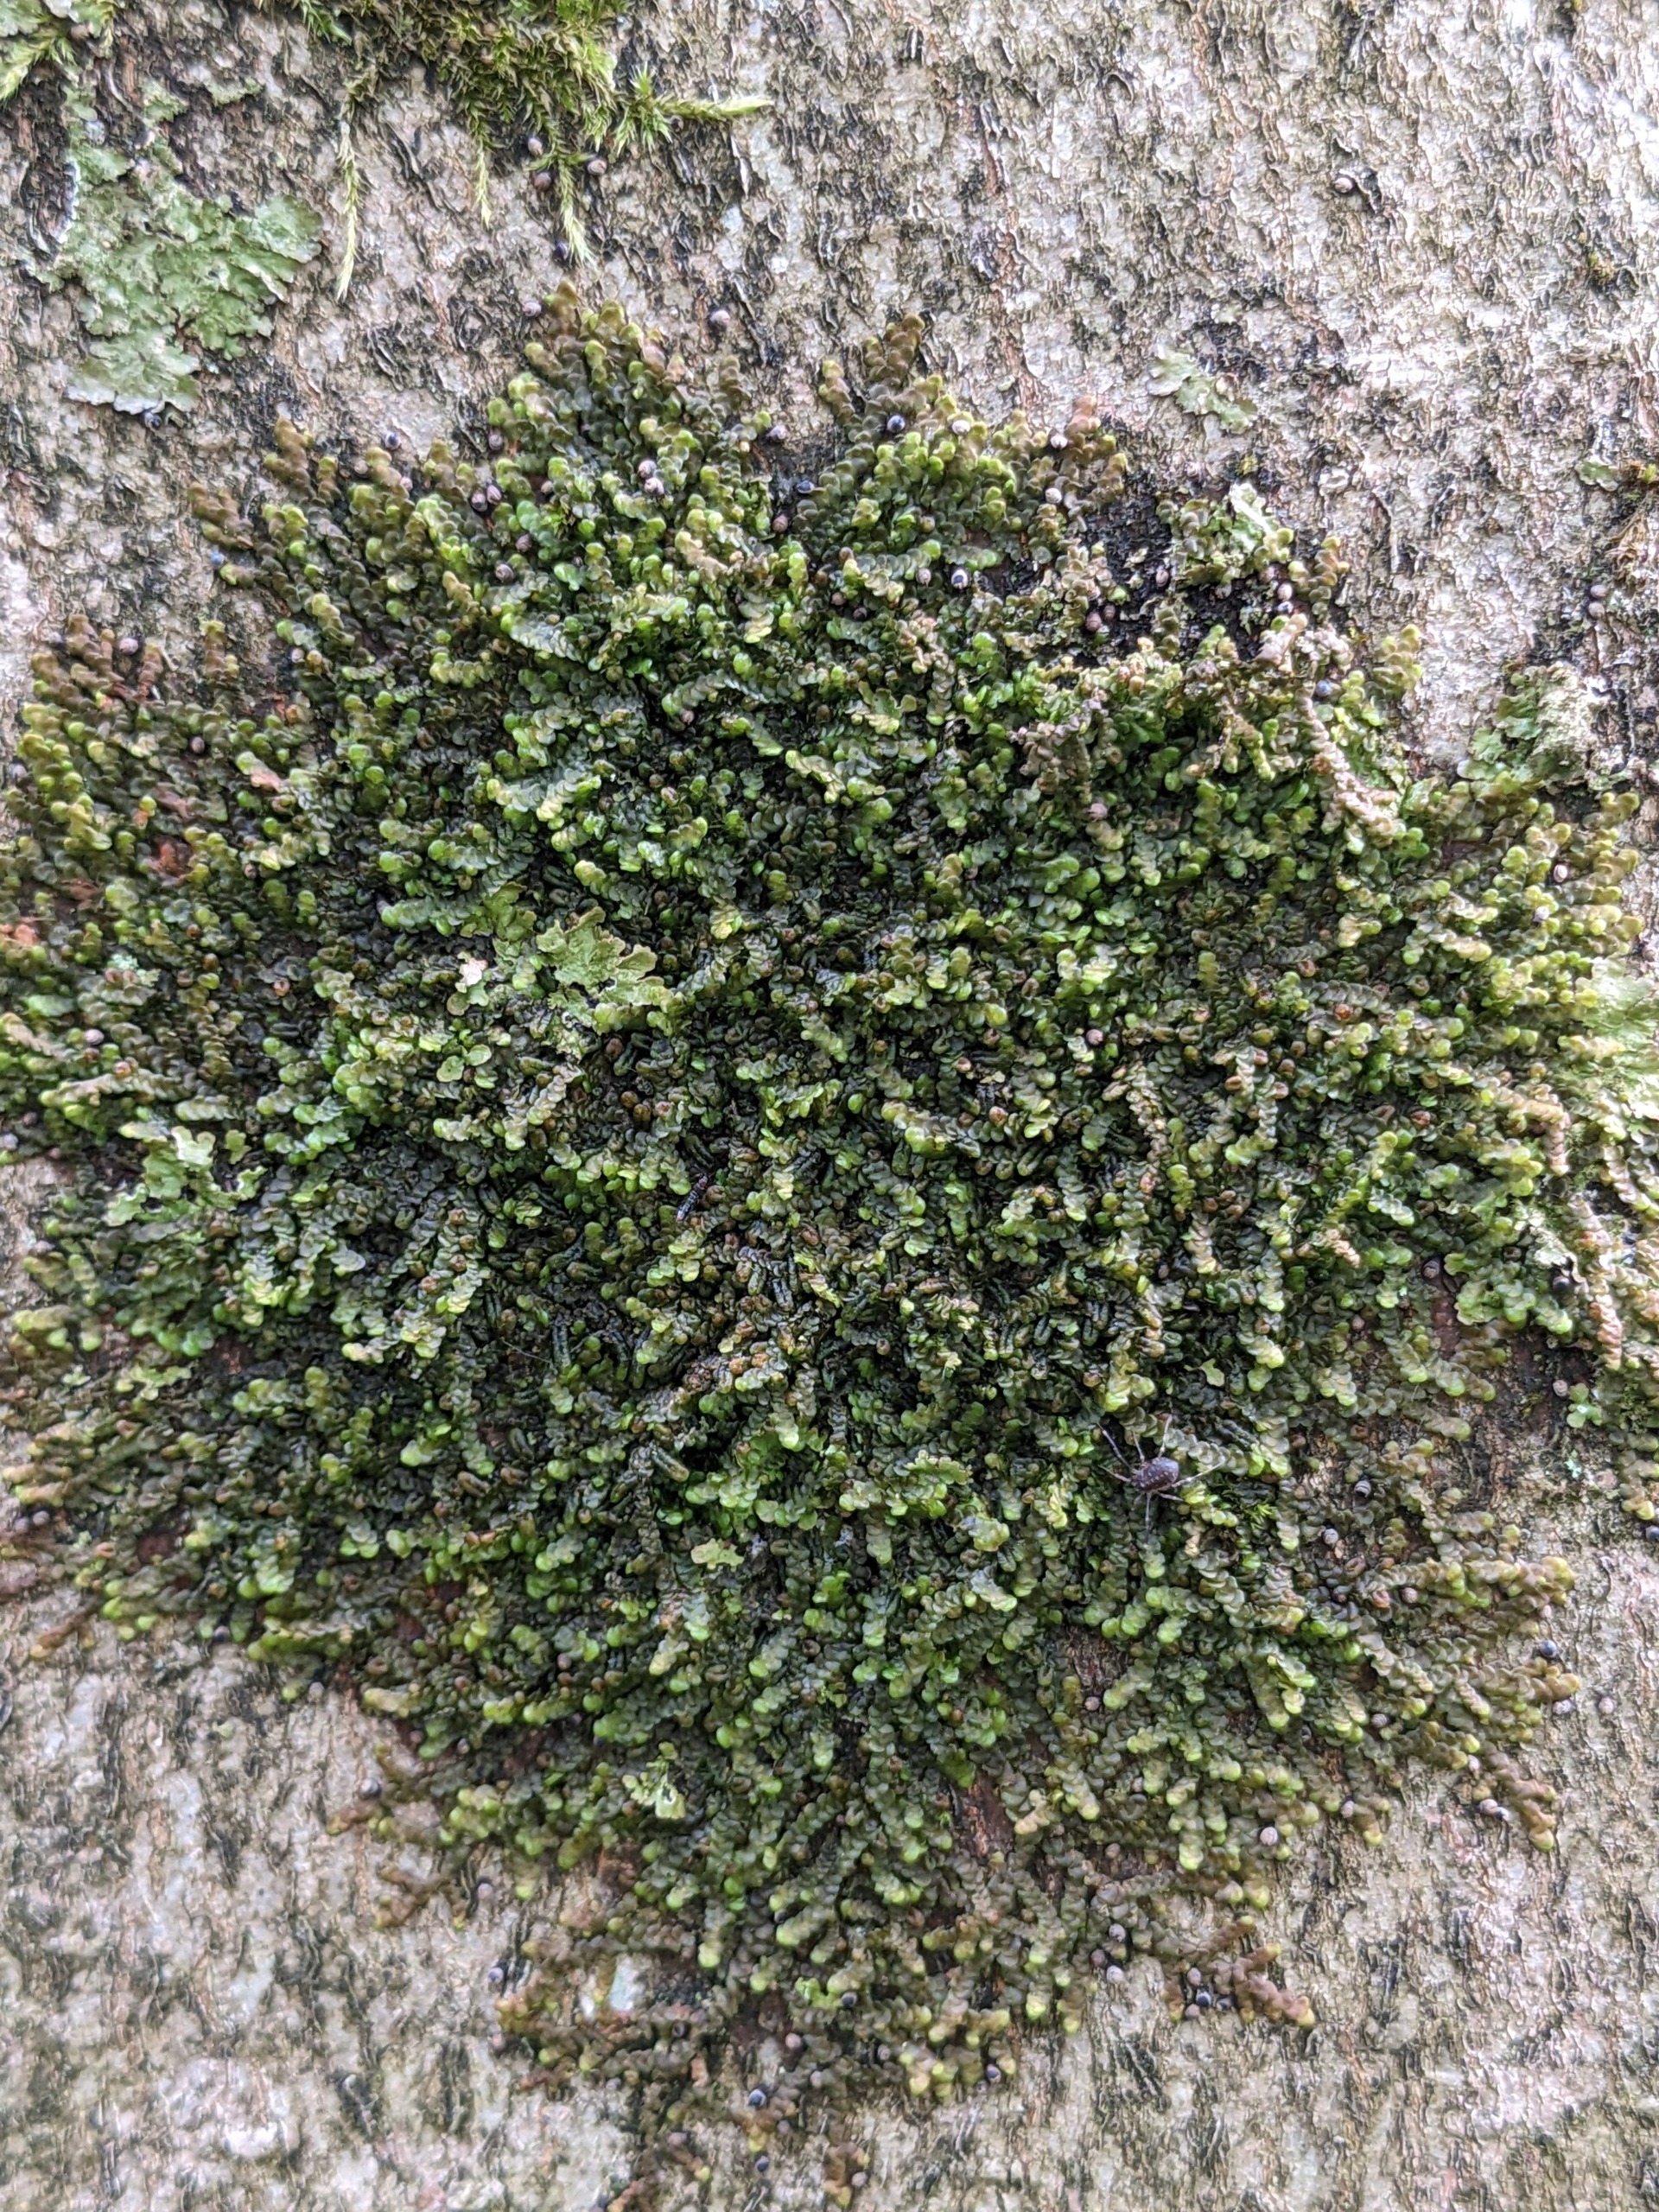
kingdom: Plantae
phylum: Marchantiophyta
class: Jungermanniopsida
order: Porellales
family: Frullaniaceae
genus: Frullania
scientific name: Frullania dilatata
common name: Mat bronzemos
